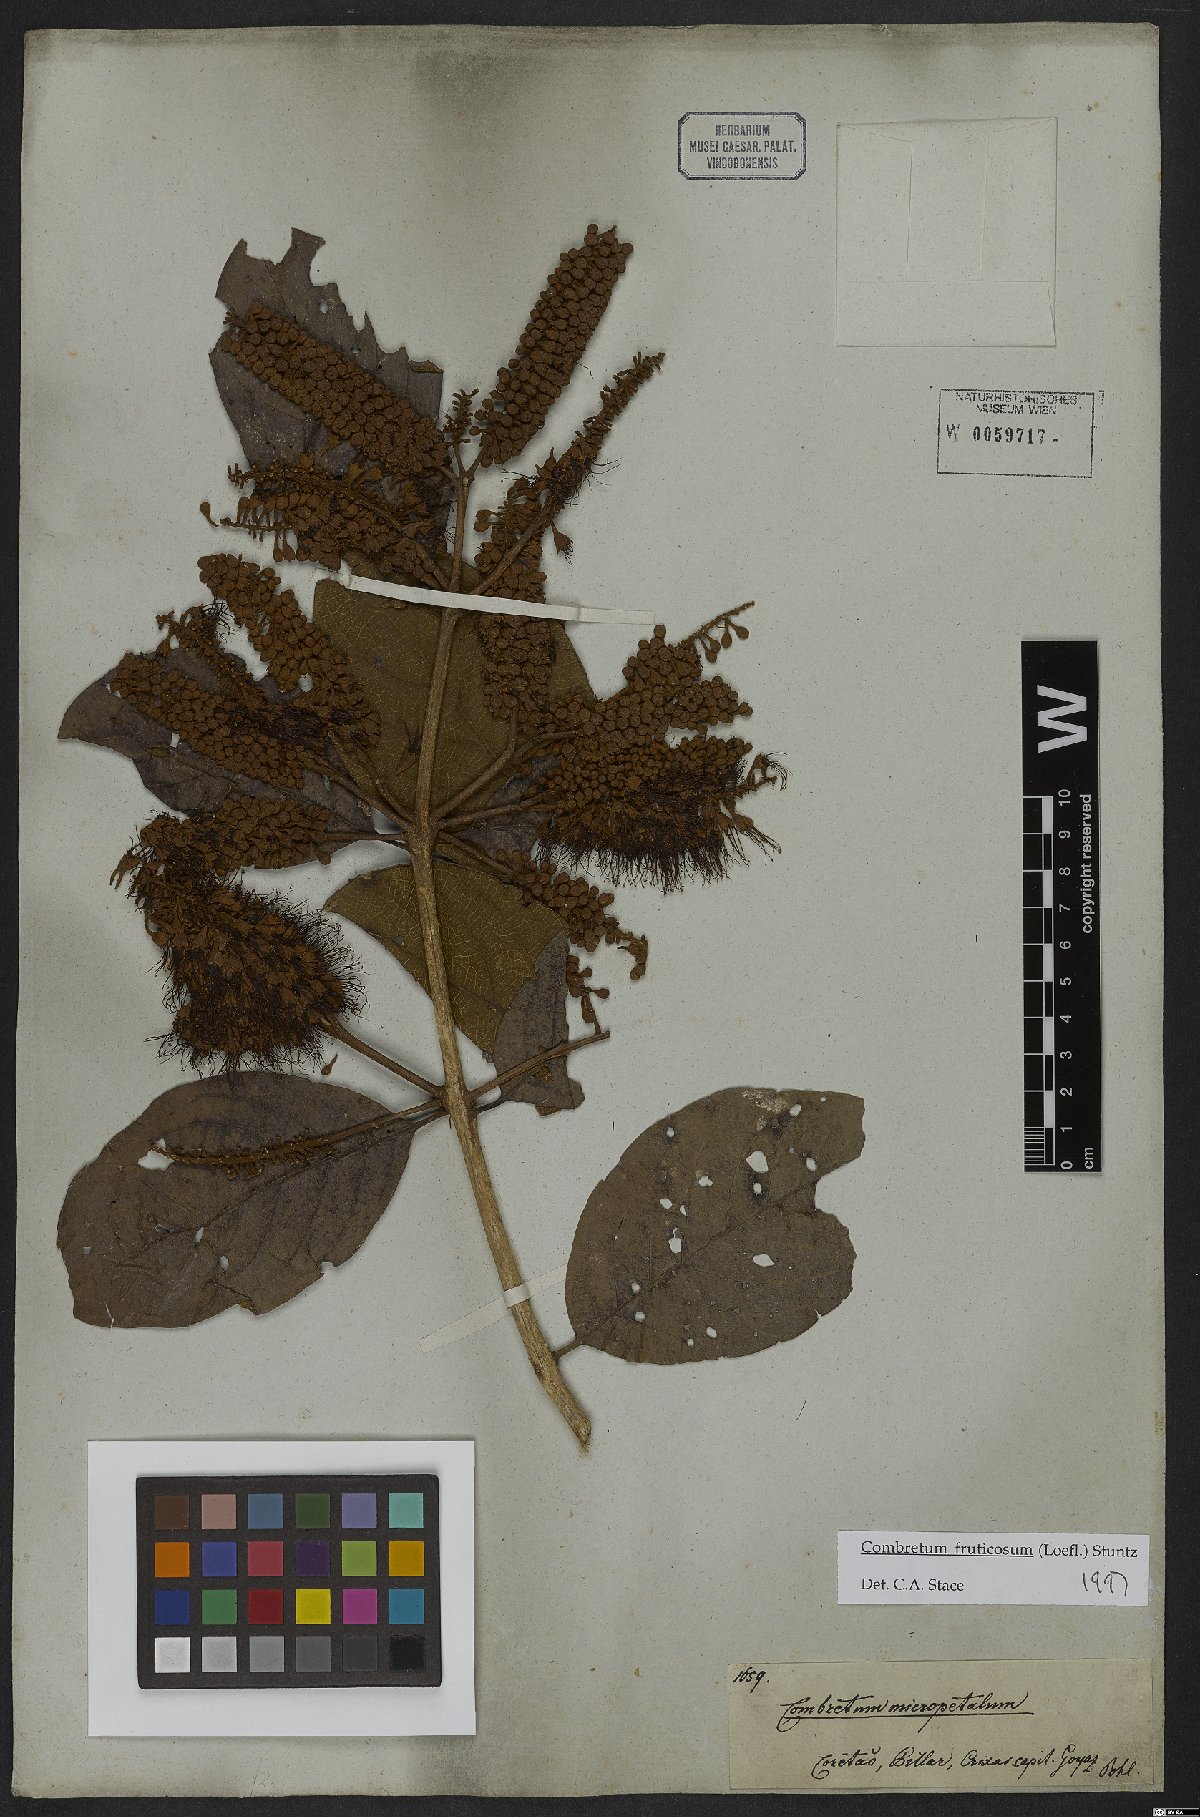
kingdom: Plantae
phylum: Tracheophyta
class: Magnoliopsida
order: Myrtales
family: Combretaceae
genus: Combretum
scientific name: Combretum fruticosum
